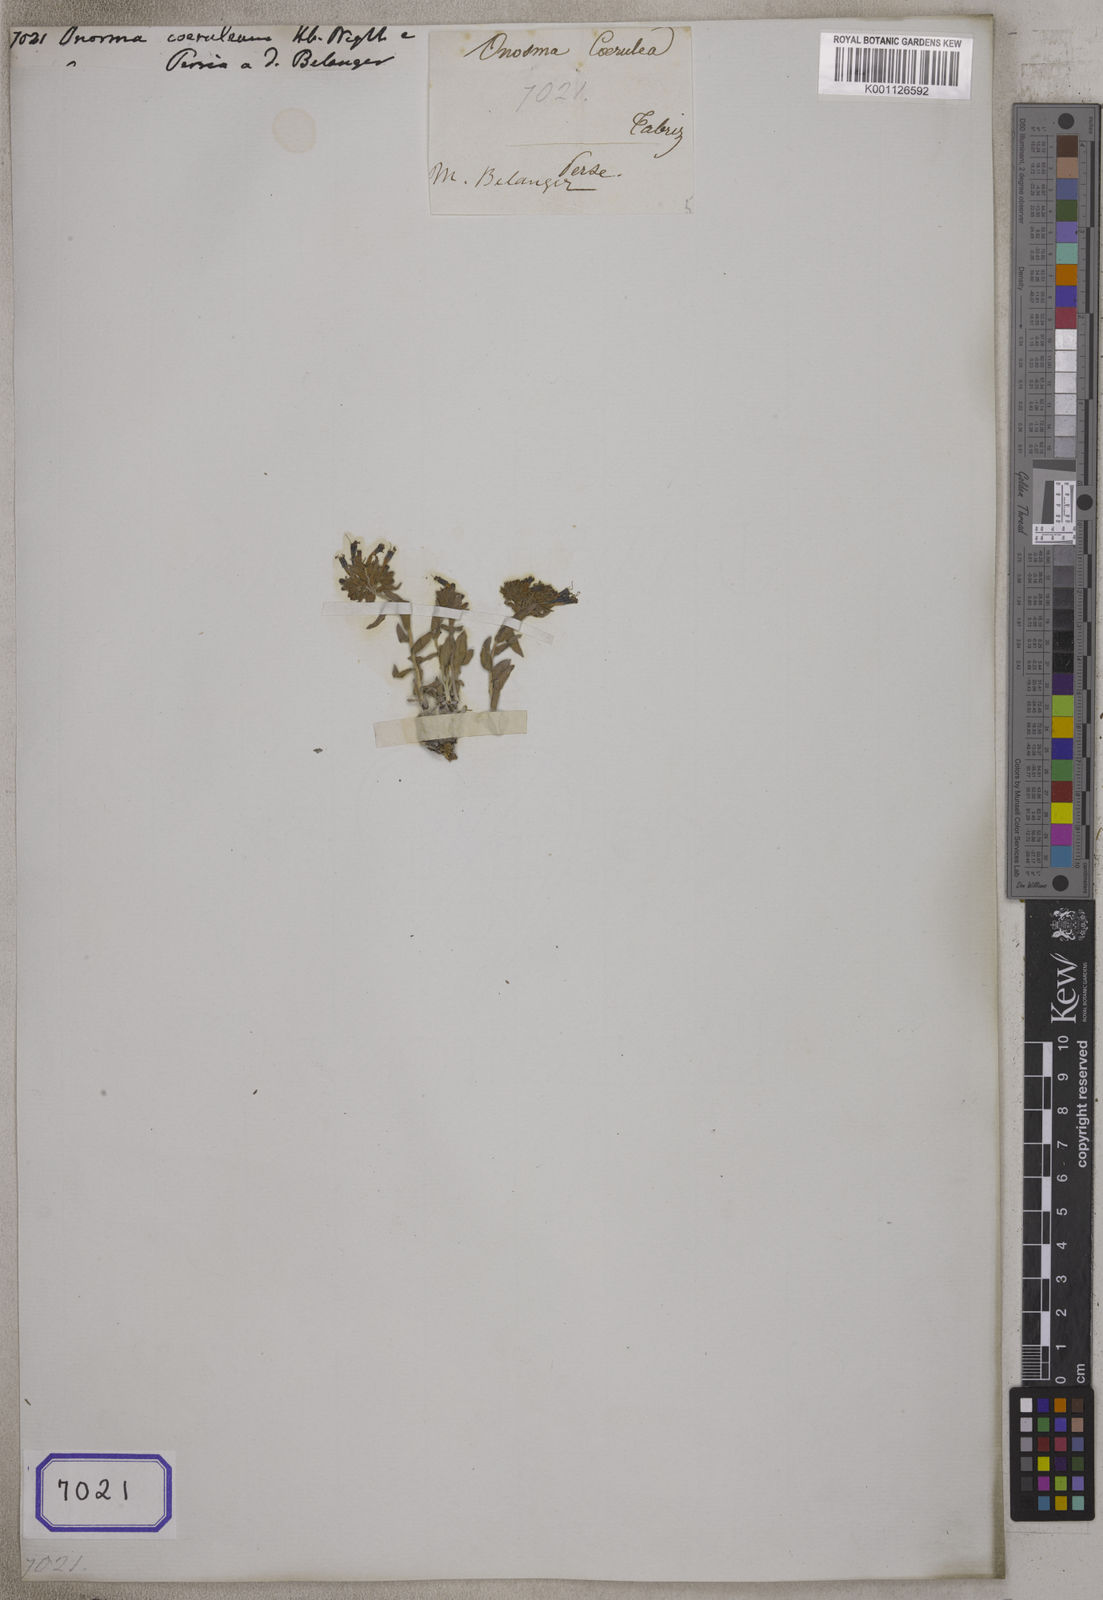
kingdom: Plantae
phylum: Tracheophyta
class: Magnoliopsida
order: Boraginales
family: Boraginaceae
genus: Moltkia
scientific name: Moltkia coerulea
